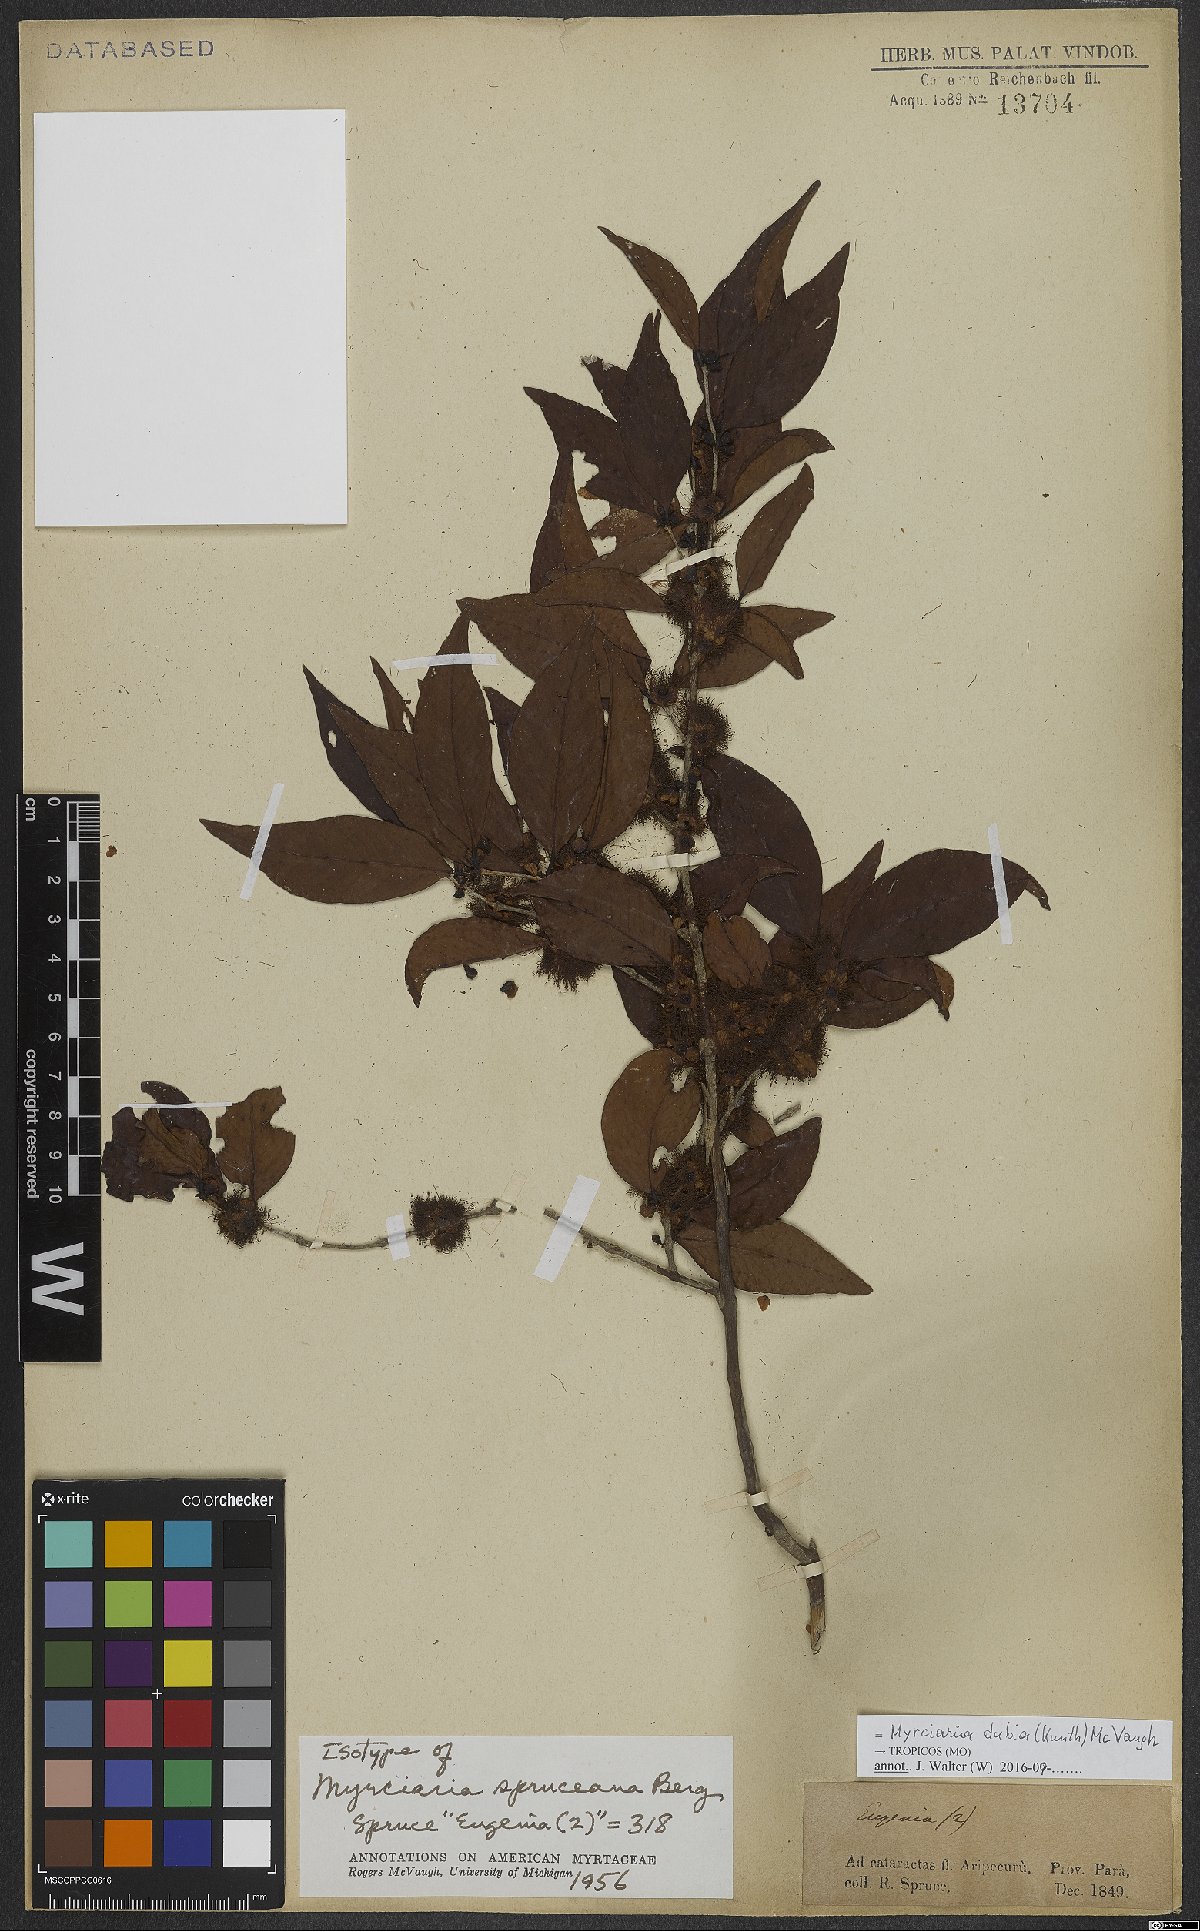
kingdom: Plantae
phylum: Tracheophyta
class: Magnoliopsida
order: Myrtales
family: Myrtaceae
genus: Myrciaria
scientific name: Myrciaria dubia
